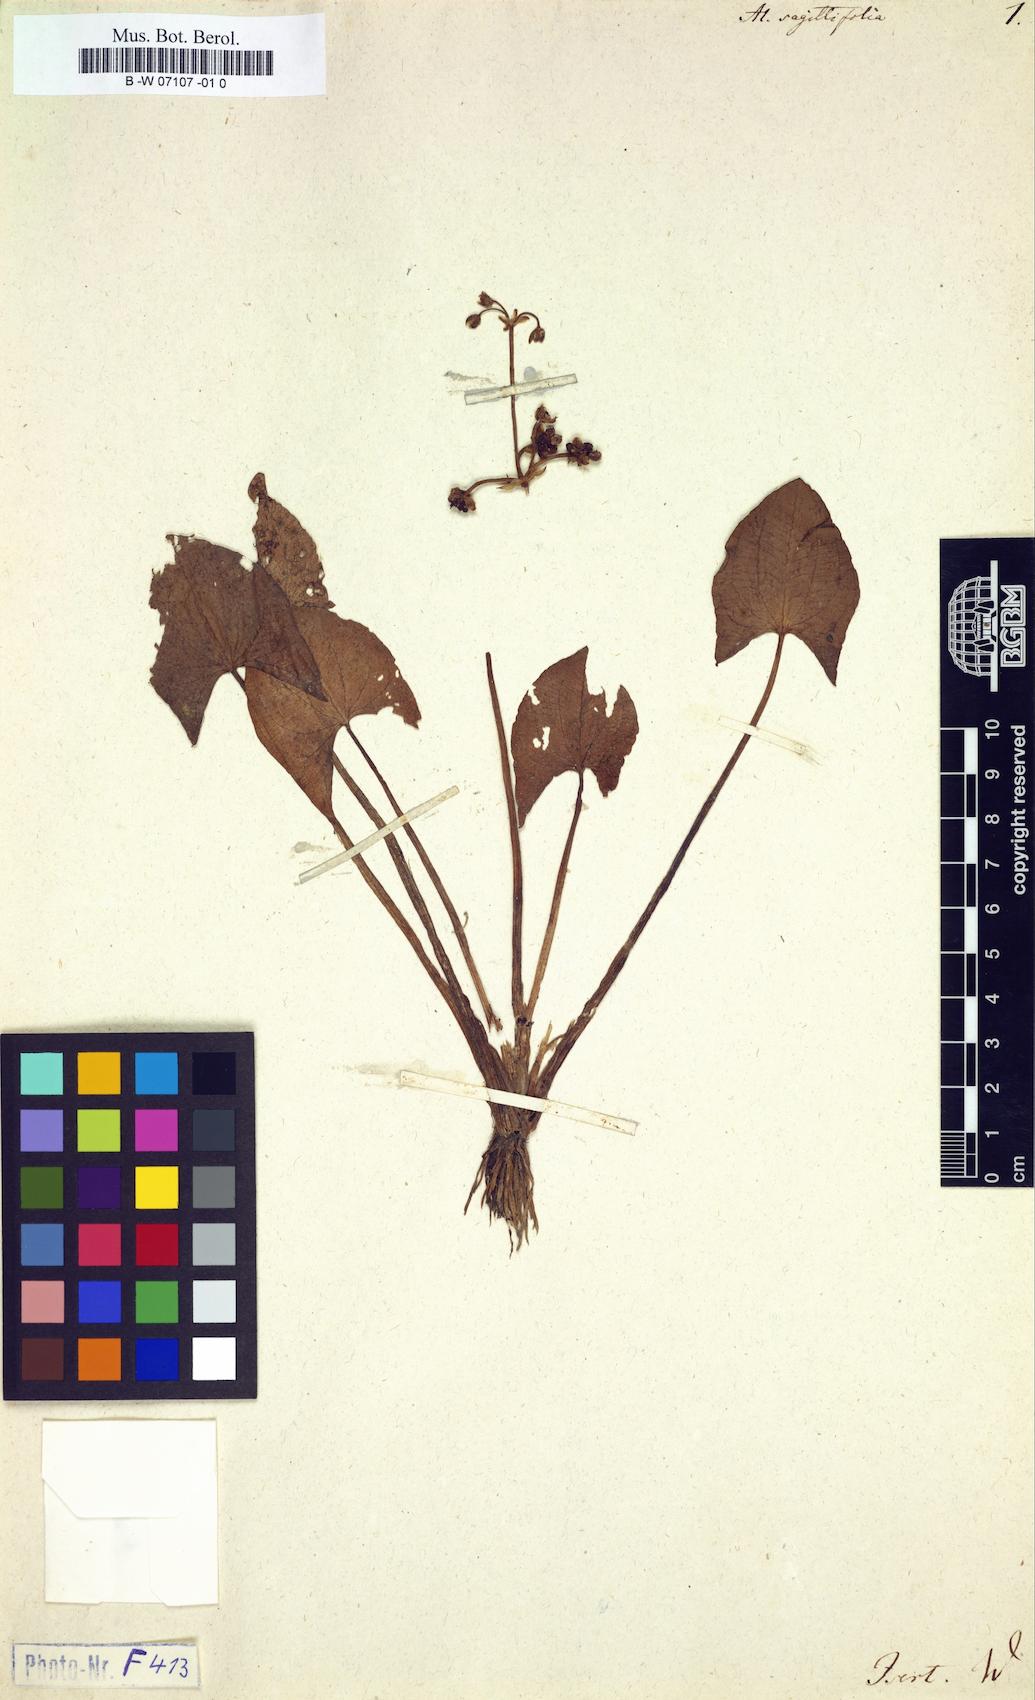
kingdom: Plantae
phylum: Tracheophyta
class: Liliopsida
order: Alismatales
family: Alismataceae
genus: Limnophyton
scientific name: Limnophyton obtusifolium
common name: Arrow head
